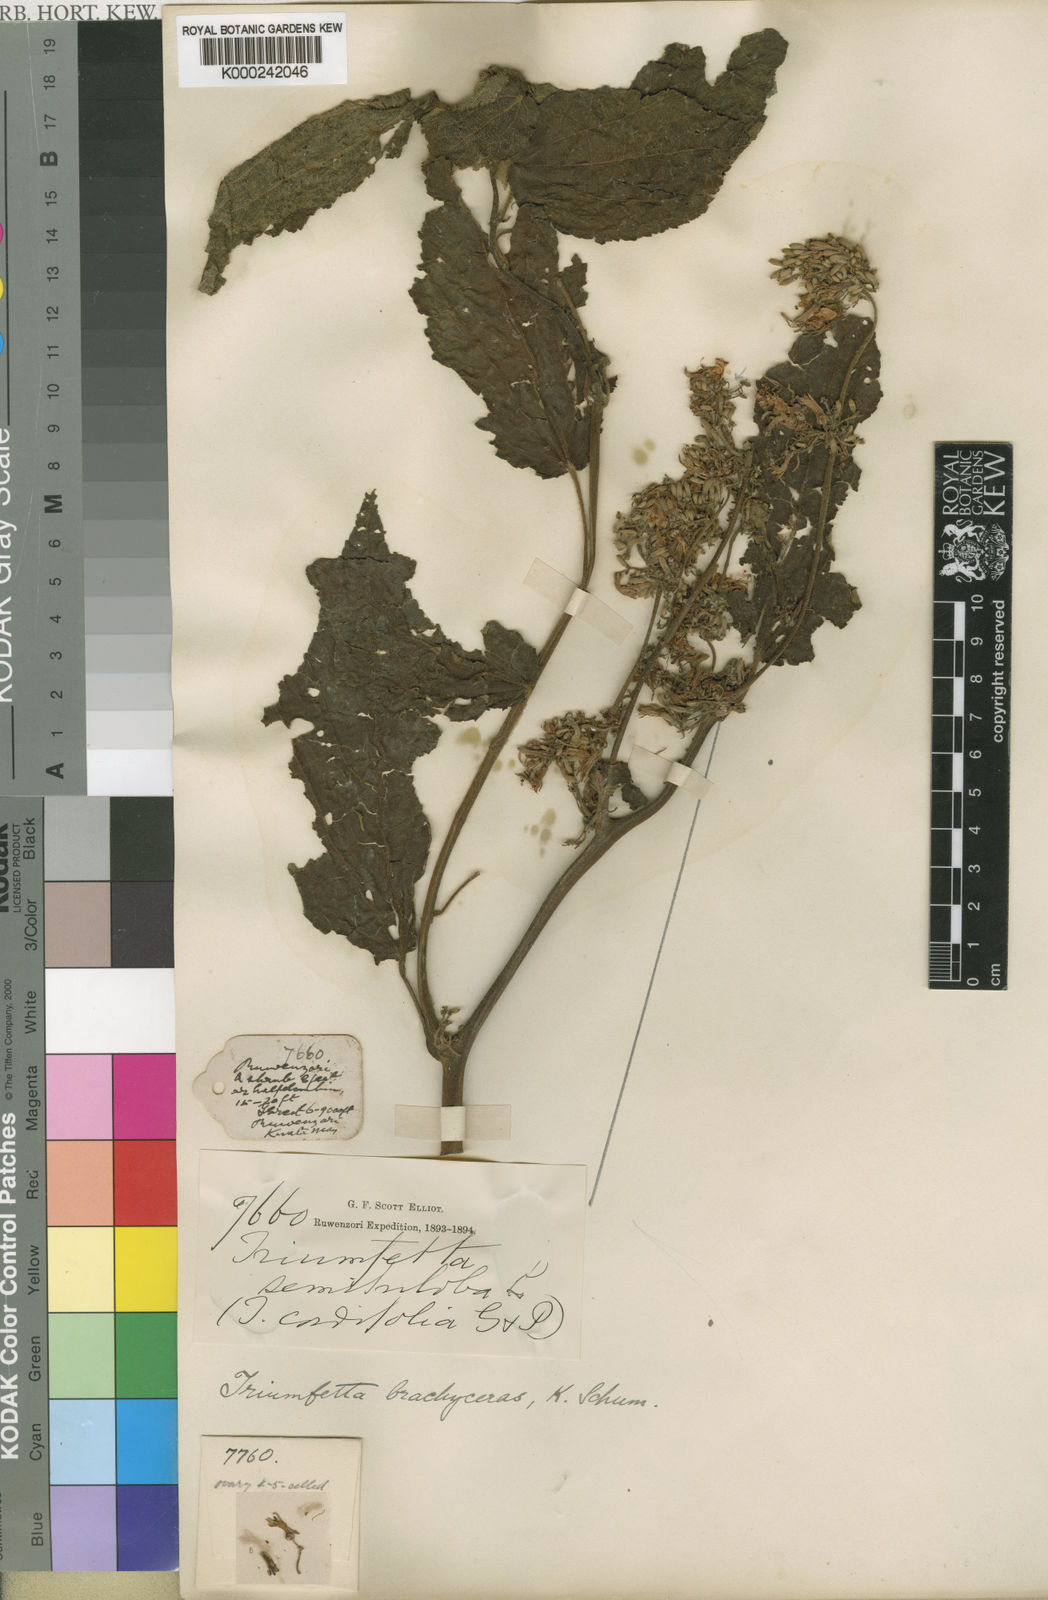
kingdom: Plantae
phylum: Tracheophyta
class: Magnoliopsida
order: Malvales
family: Malvaceae
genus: Triumfetta
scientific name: Triumfetta brachyceras
